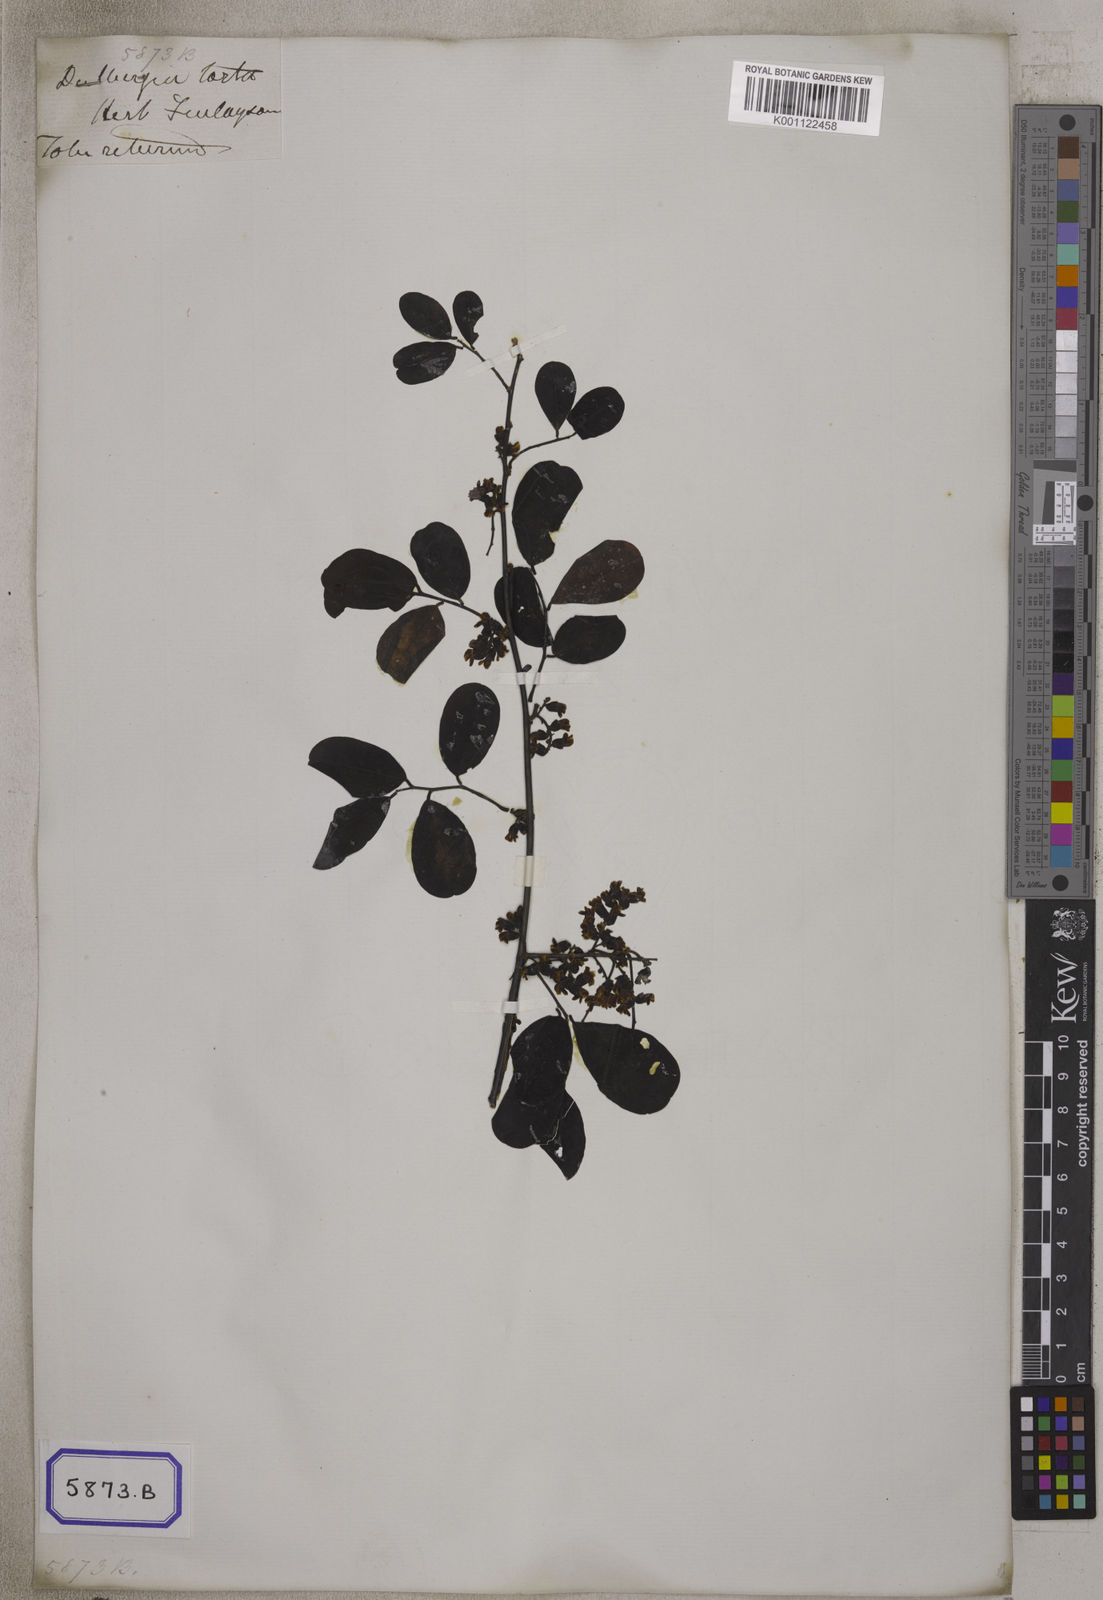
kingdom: Plantae
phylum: Tracheophyta
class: Magnoliopsida
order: Fabales
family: Fabaceae
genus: Dalbergia
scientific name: Dalbergia candenatensis
